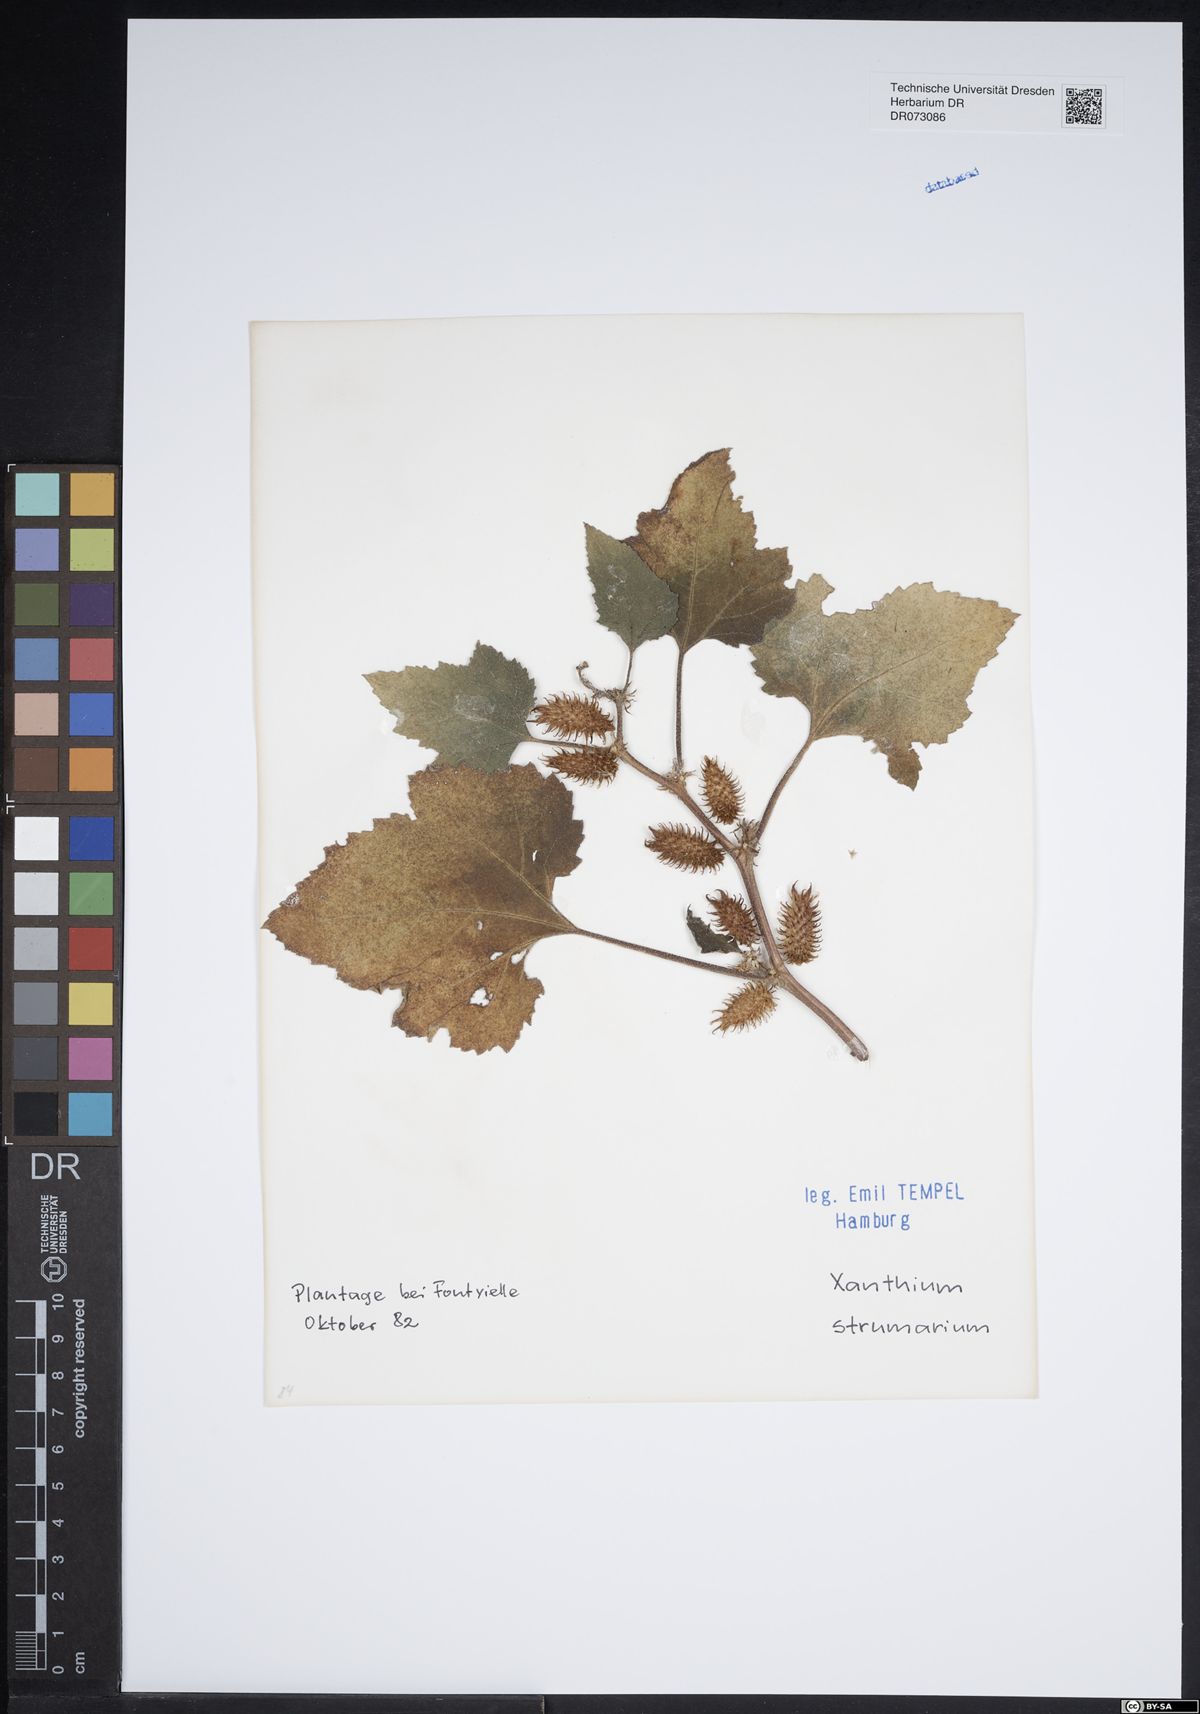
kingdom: Plantae
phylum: Tracheophyta
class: Magnoliopsida
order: Asterales
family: Asteraceae
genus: Bellis
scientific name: Bellis annua
